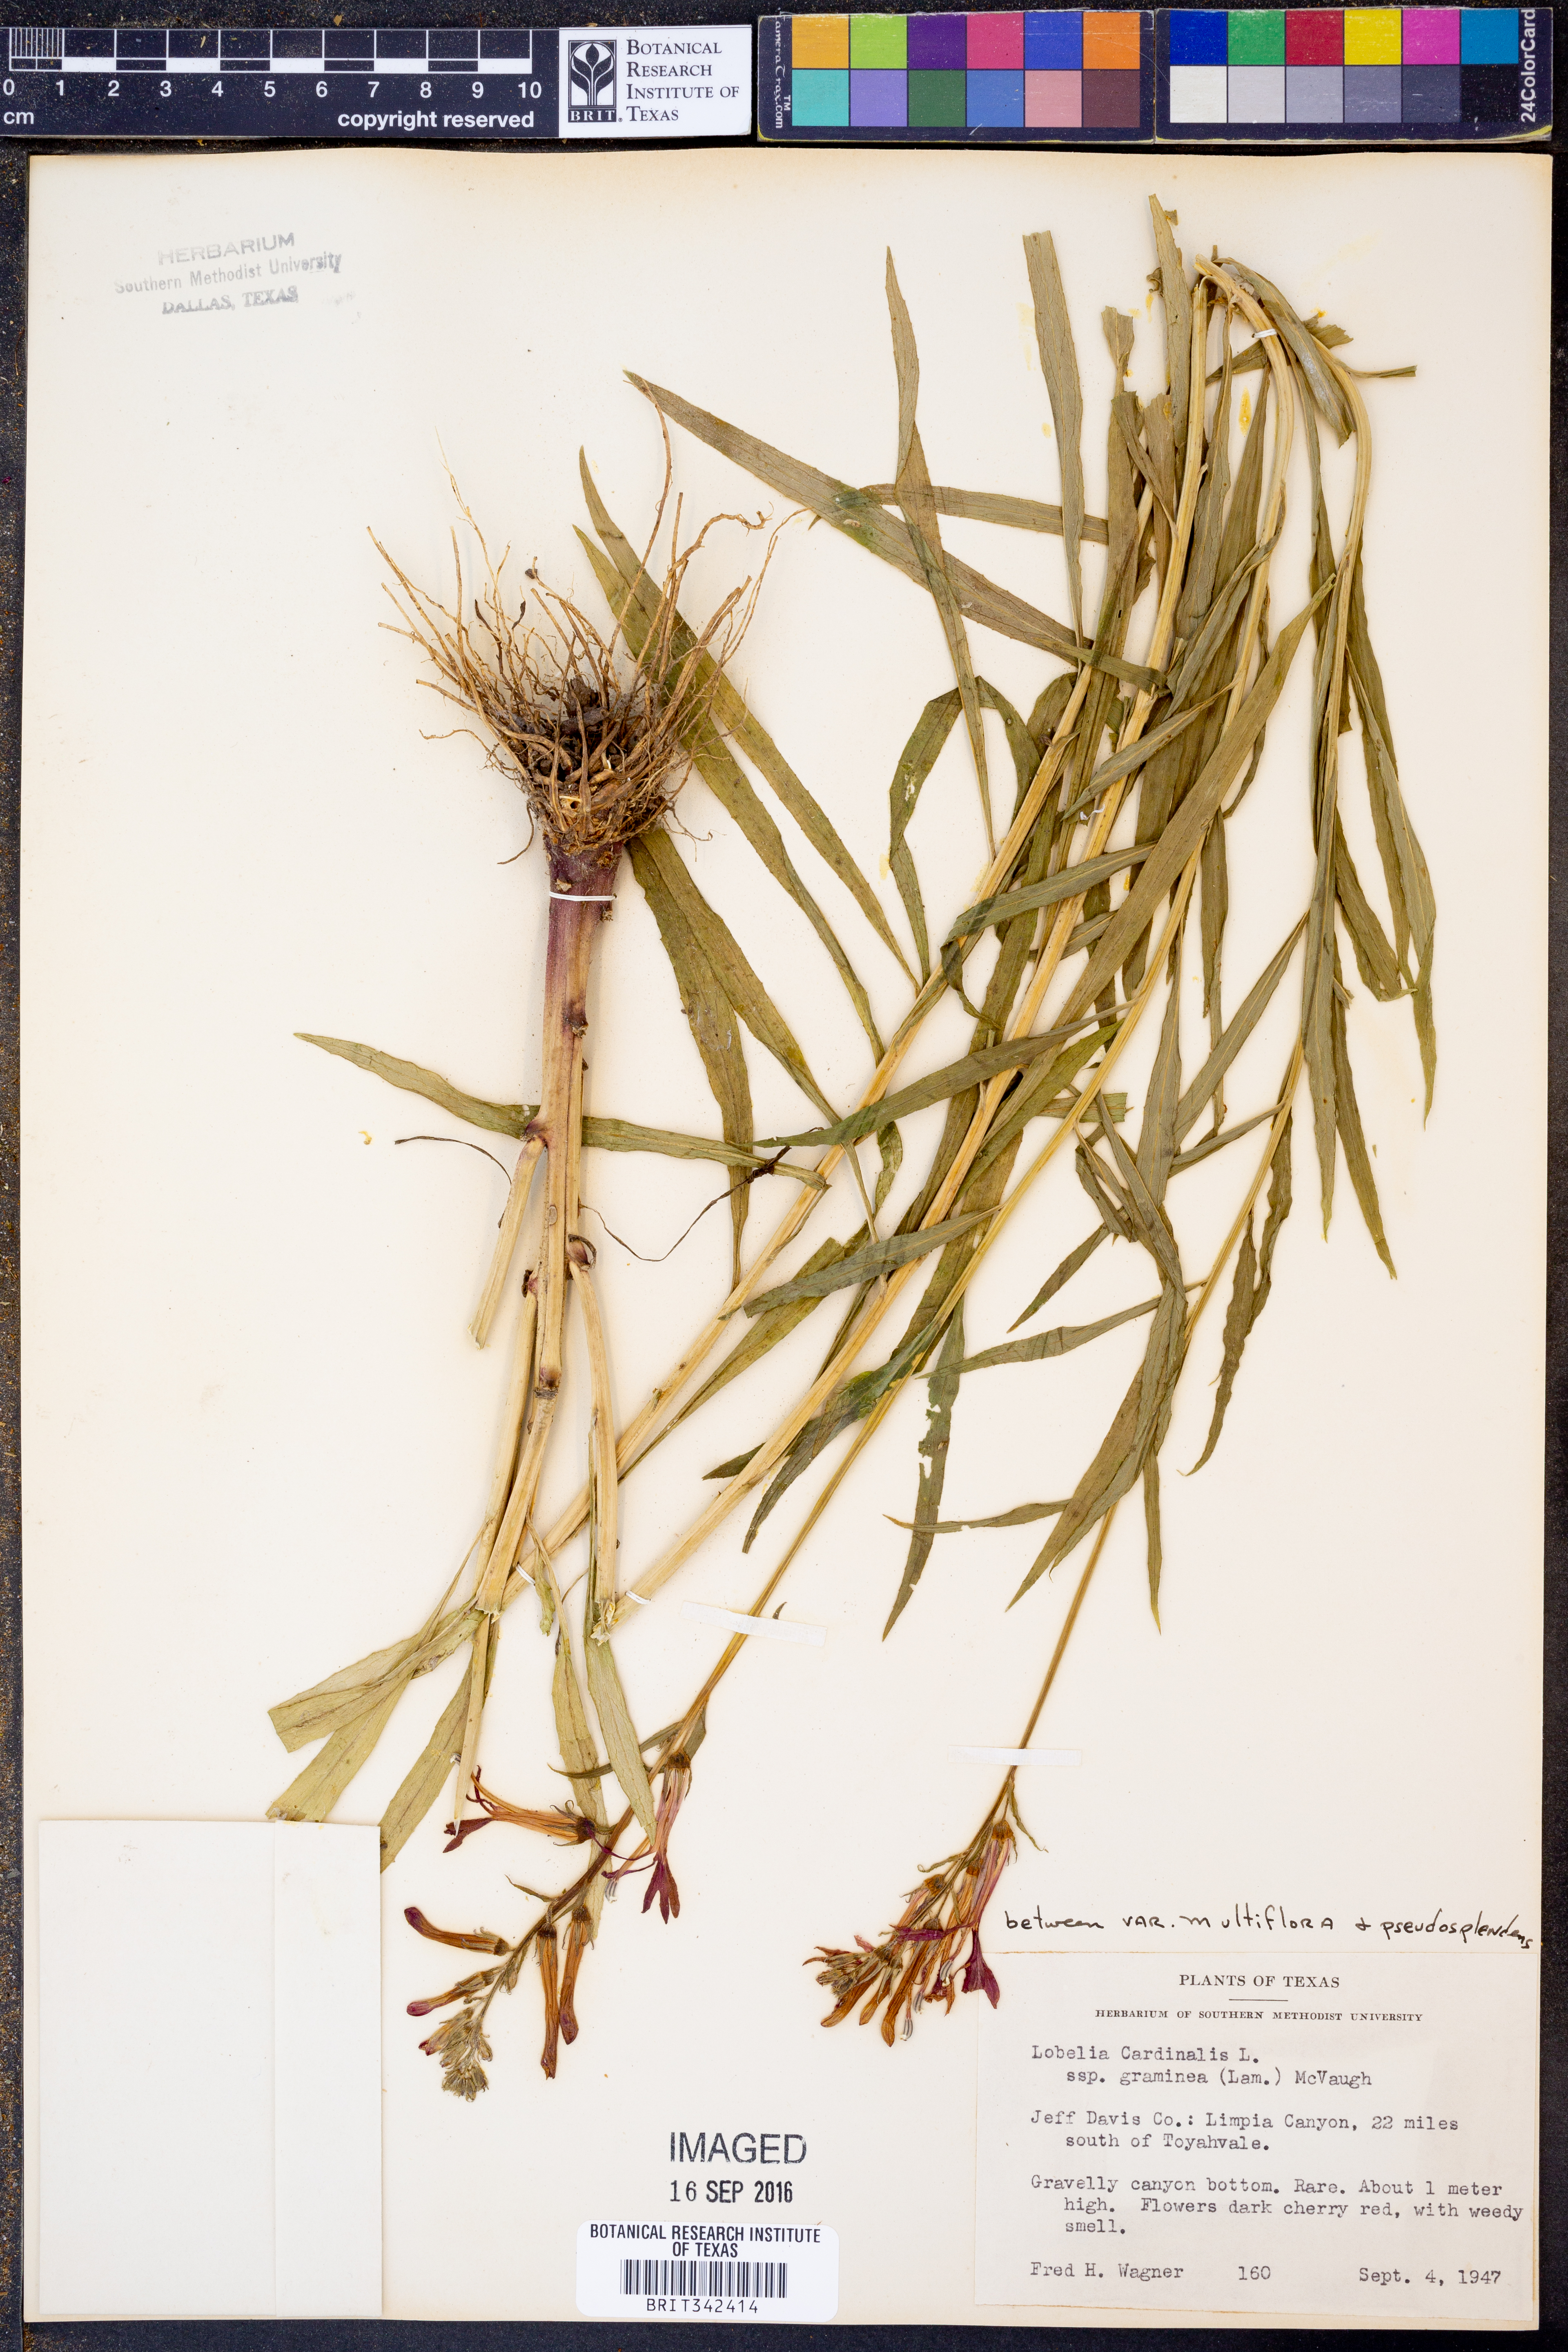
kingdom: Plantae
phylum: Tracheophyta
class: Magnoliopsida
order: Asterales
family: Campanulaceae
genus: Lobelia
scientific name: Lobelia cardinalis
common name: Cardinal flower
